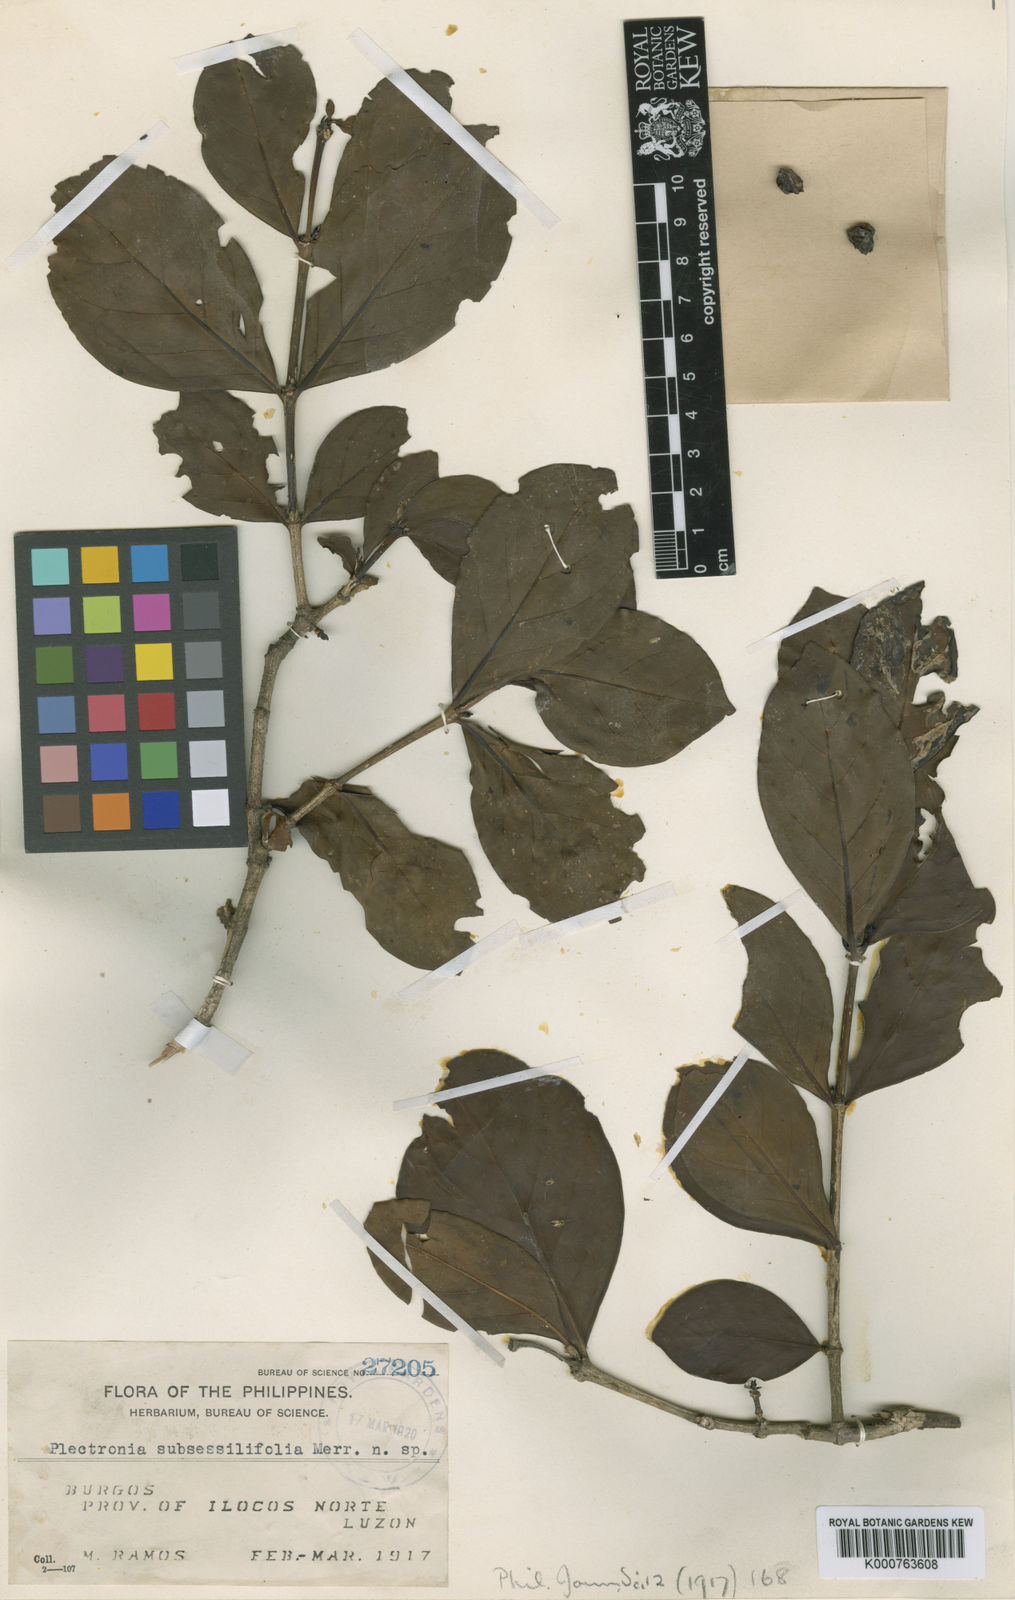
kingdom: Plantae
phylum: Tracheophyta
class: Magnoliopsida
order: Gentianales
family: Rubiaceae
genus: Canthium
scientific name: Canthium subsessilifolium
